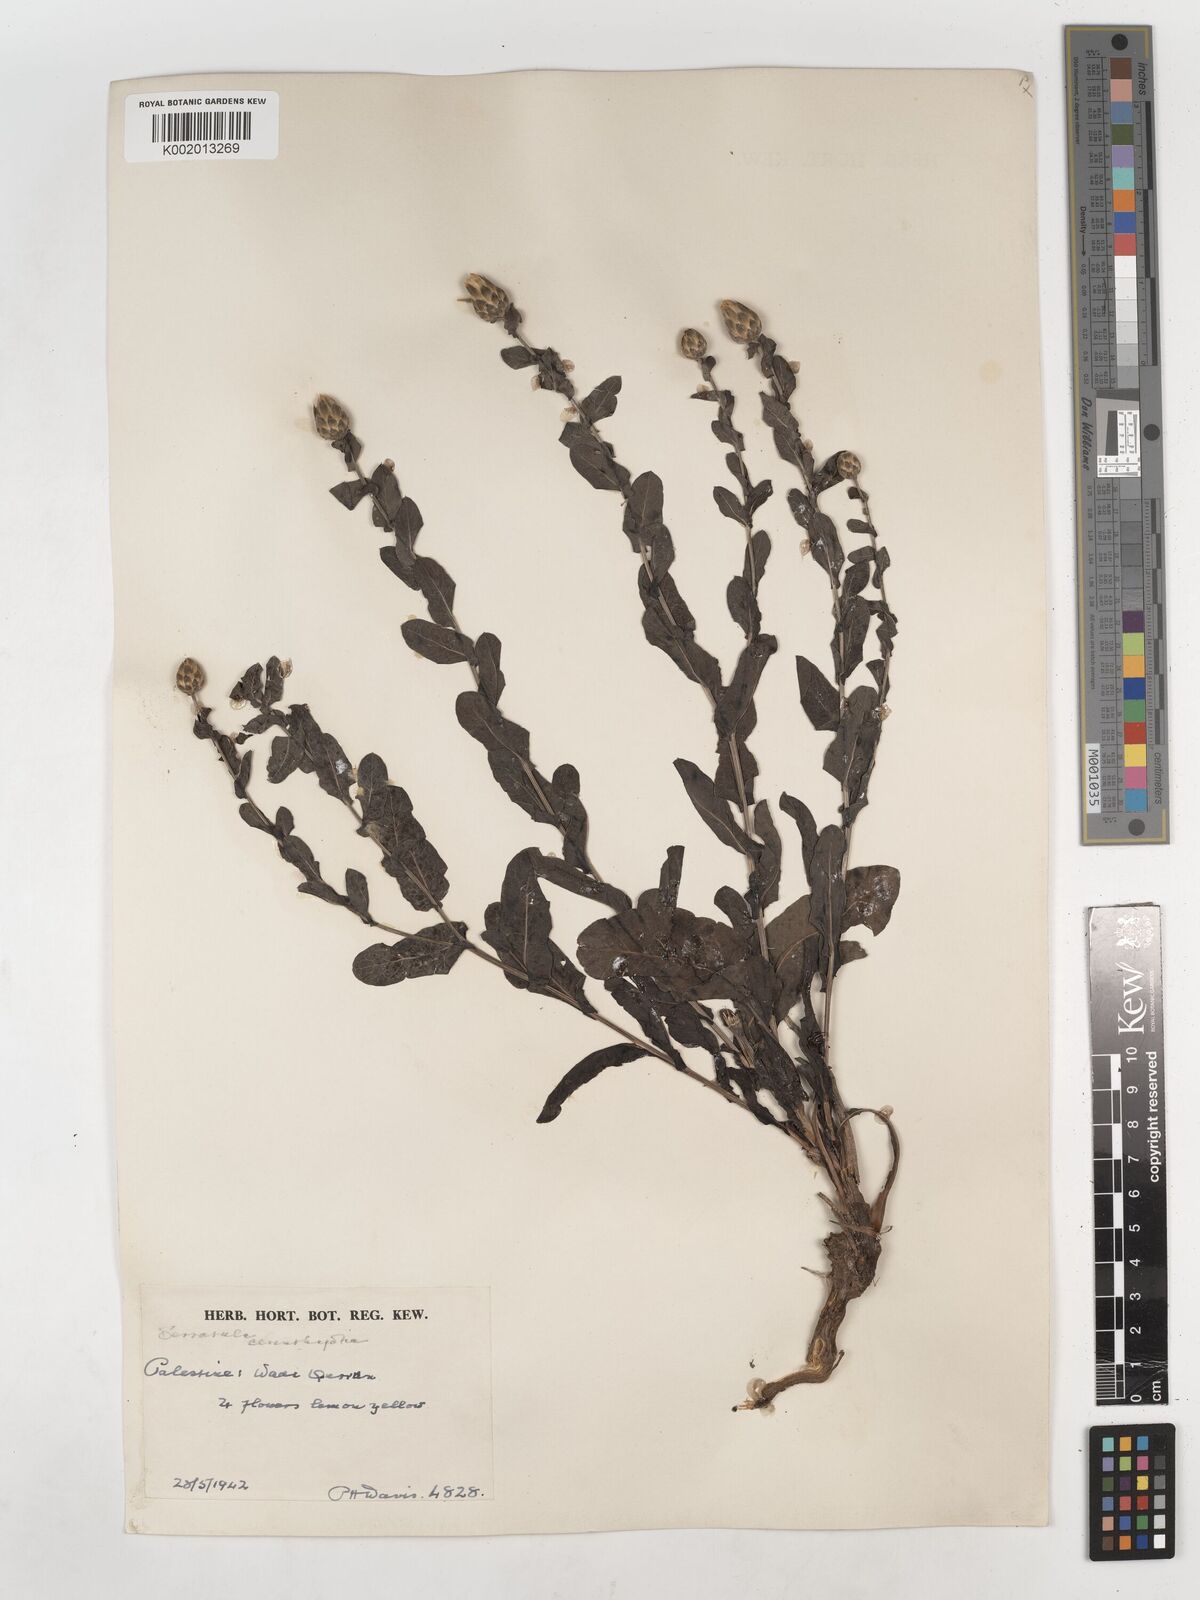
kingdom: Plantae
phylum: Tracheophyta
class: Magnoliopsida
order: Asterales
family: Asteraceae
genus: Klasea
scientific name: Klasea cerinthifolia
